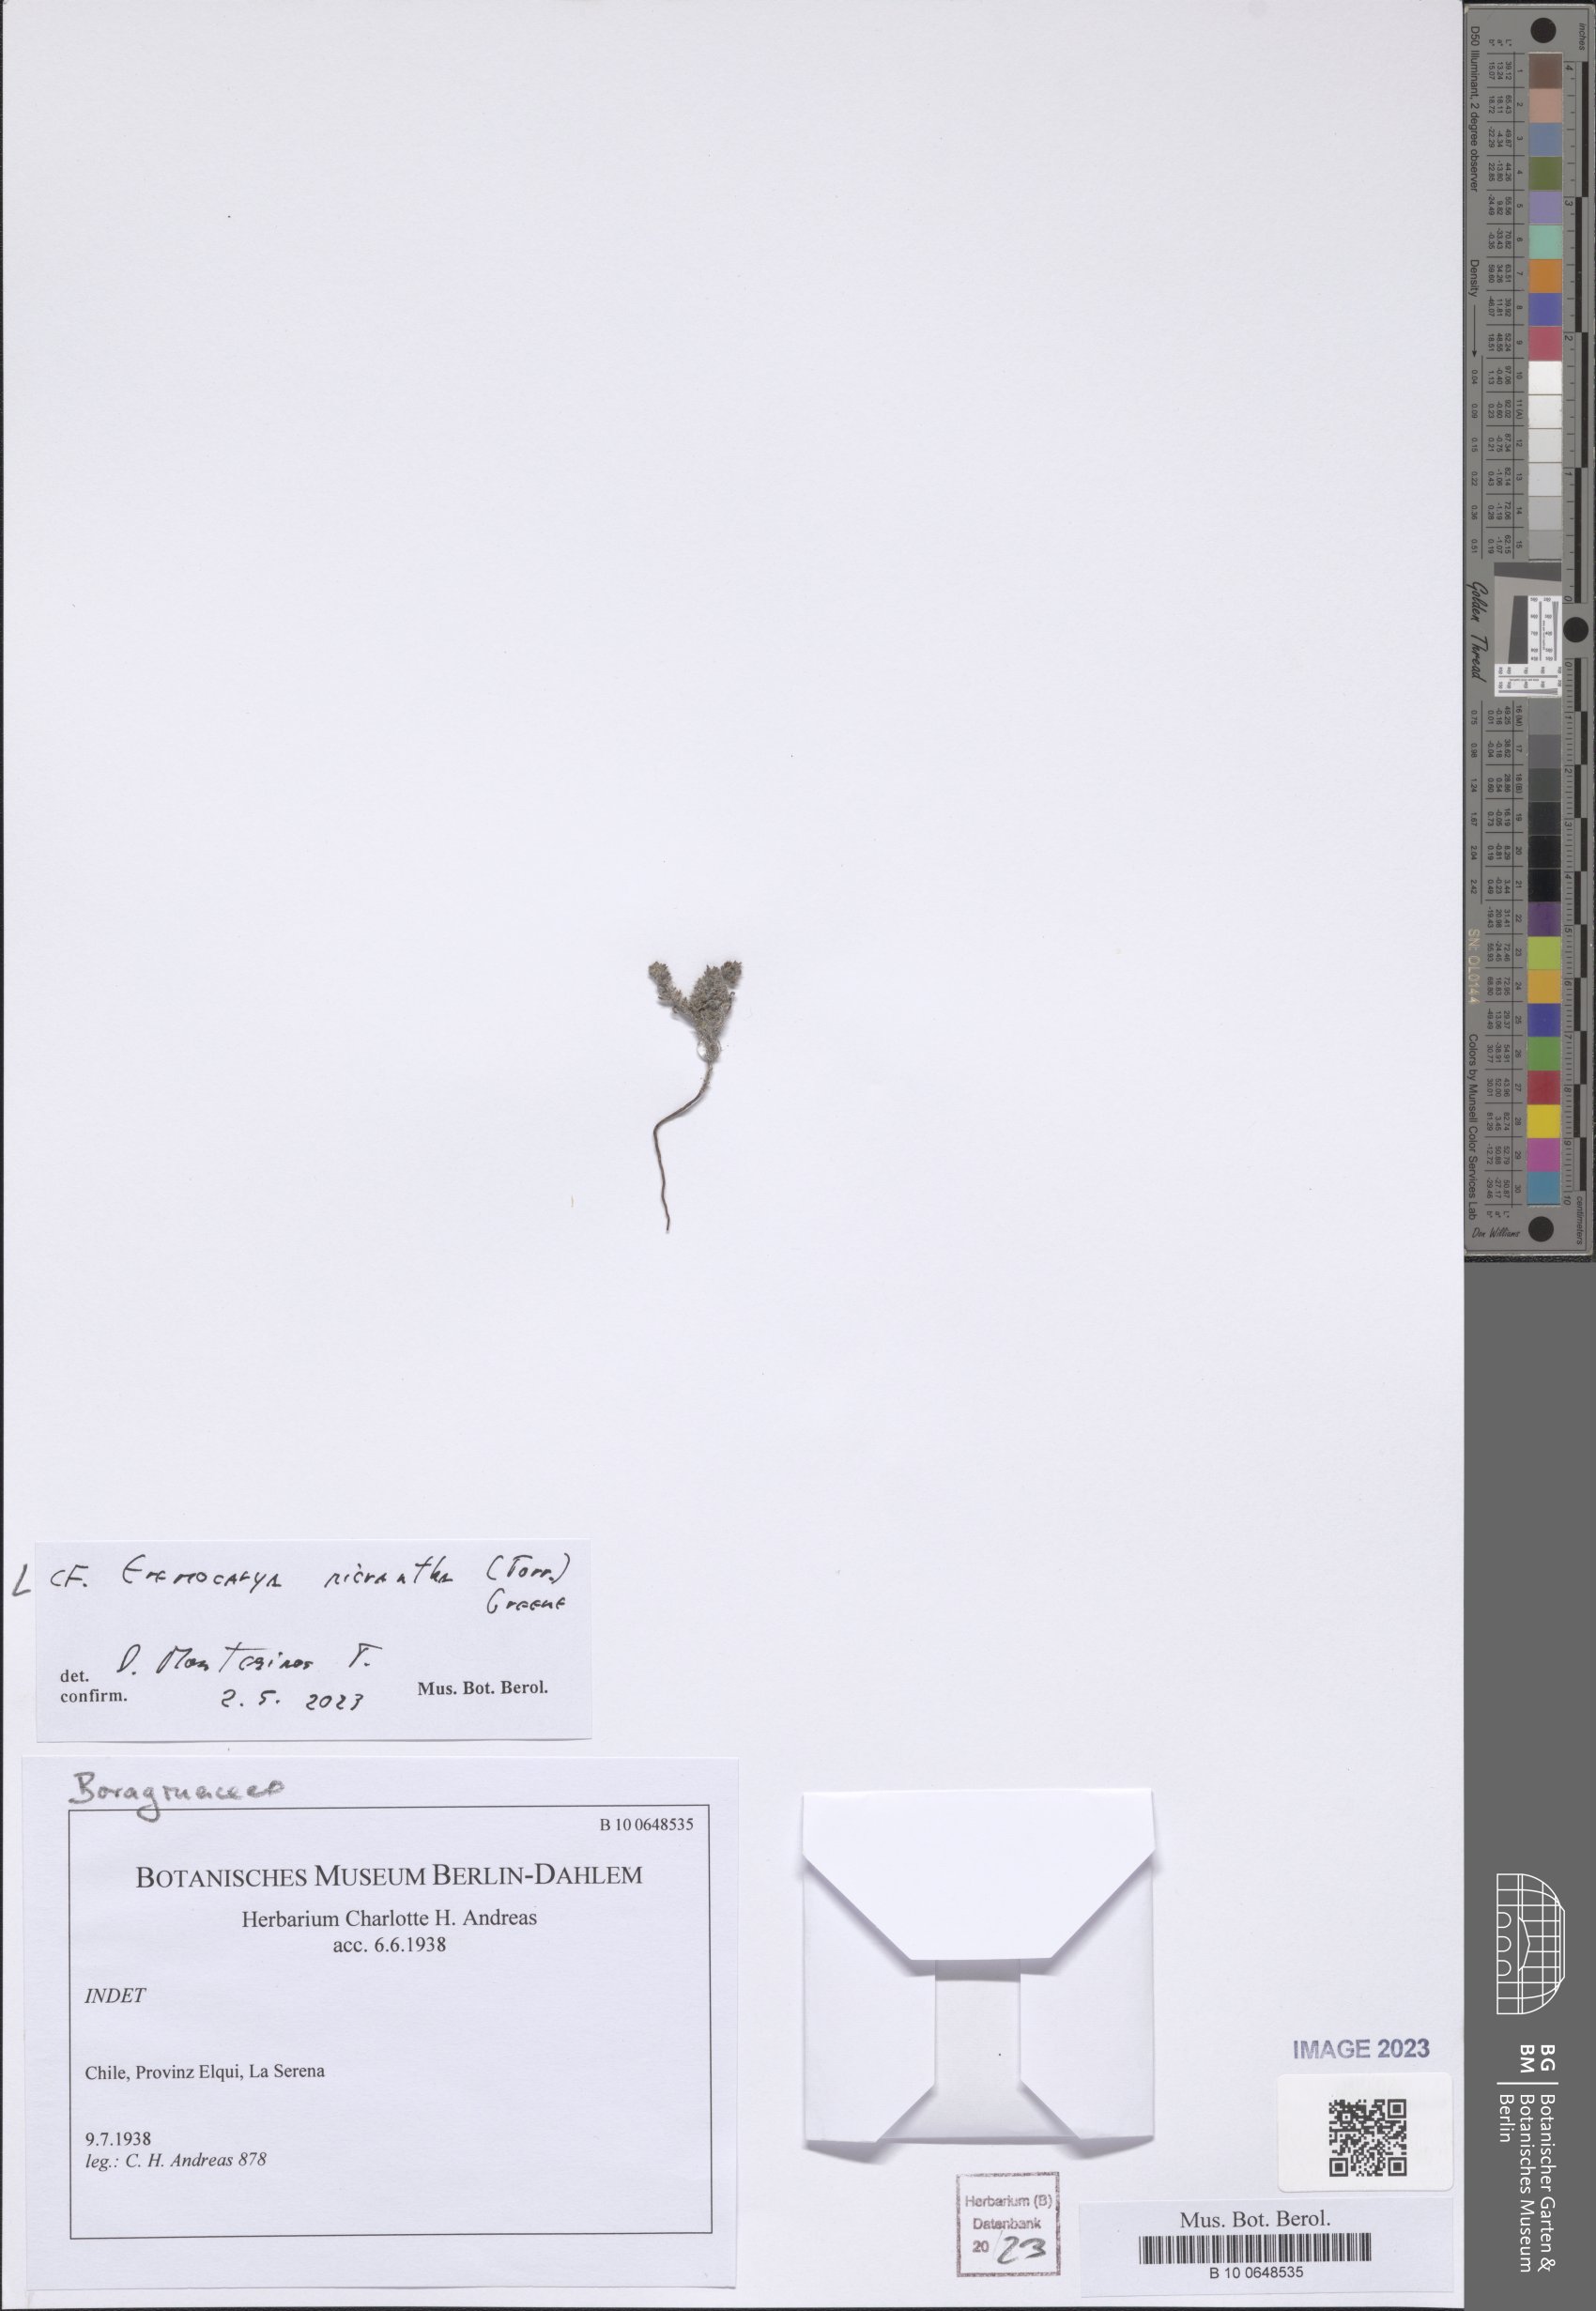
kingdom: Plantae
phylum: Tracheophyta
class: Magnoliopsida
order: Boraginales
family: Boraginaceae
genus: Eremocarya
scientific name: Eremocarya micrantha
